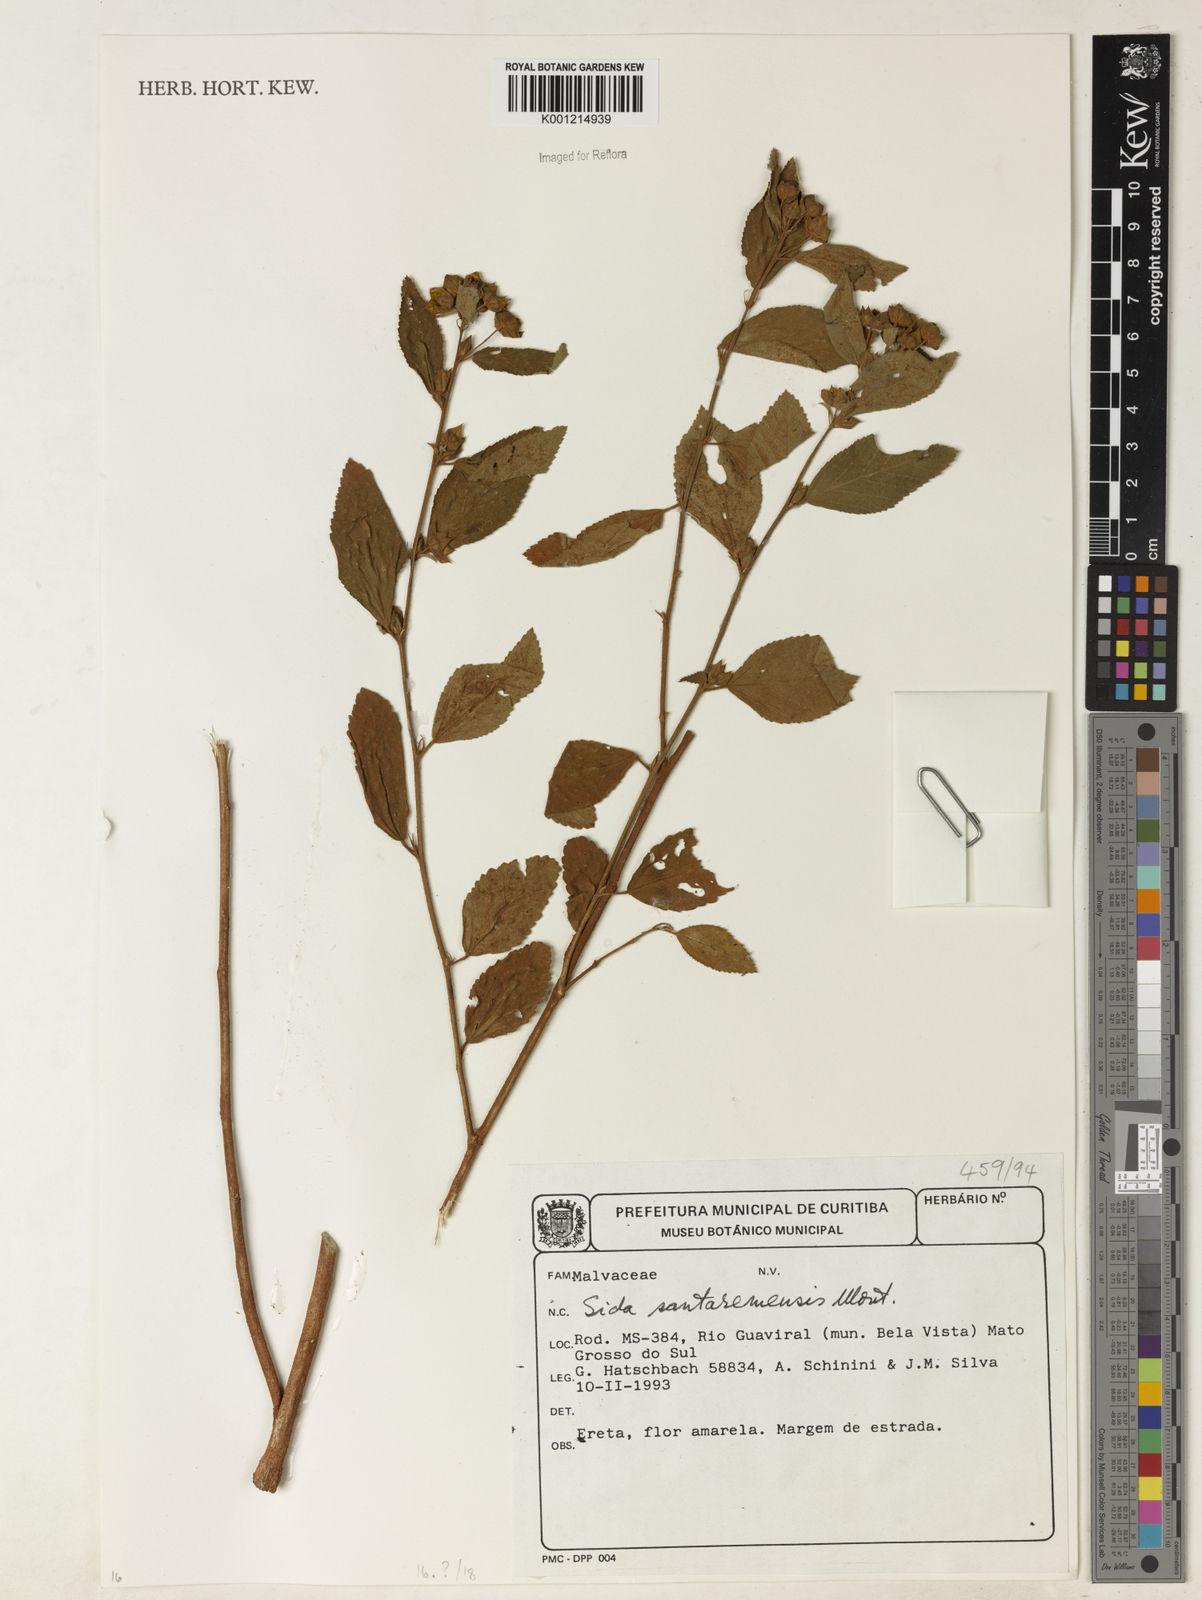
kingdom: Plantae
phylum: Tracheophyta
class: Magnoliopsida
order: Malvales
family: Malvaceae
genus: Sida
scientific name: Sida santaremensis
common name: Moth fanpetals
